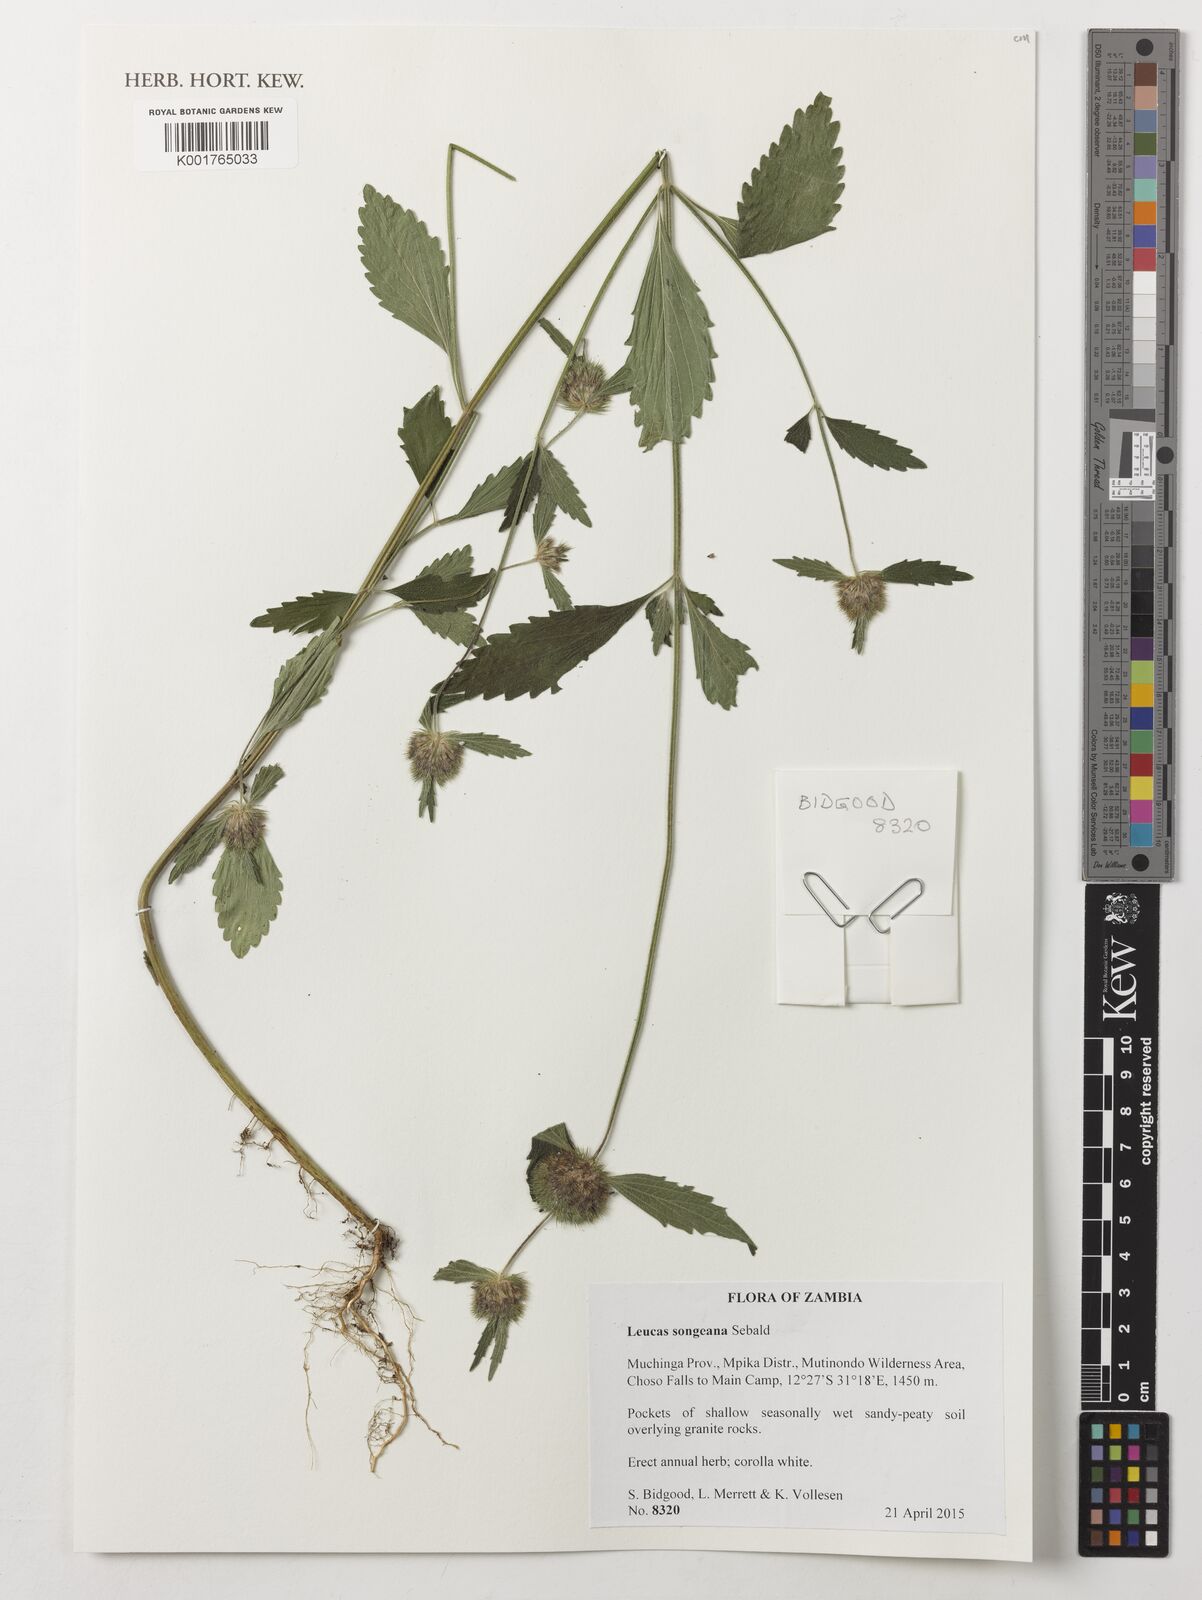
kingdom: Plantae
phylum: Tracheophyta
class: Magnoliopsida
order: Lamiales
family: Lamiaceae
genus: Leucas
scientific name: Leucas songeana
